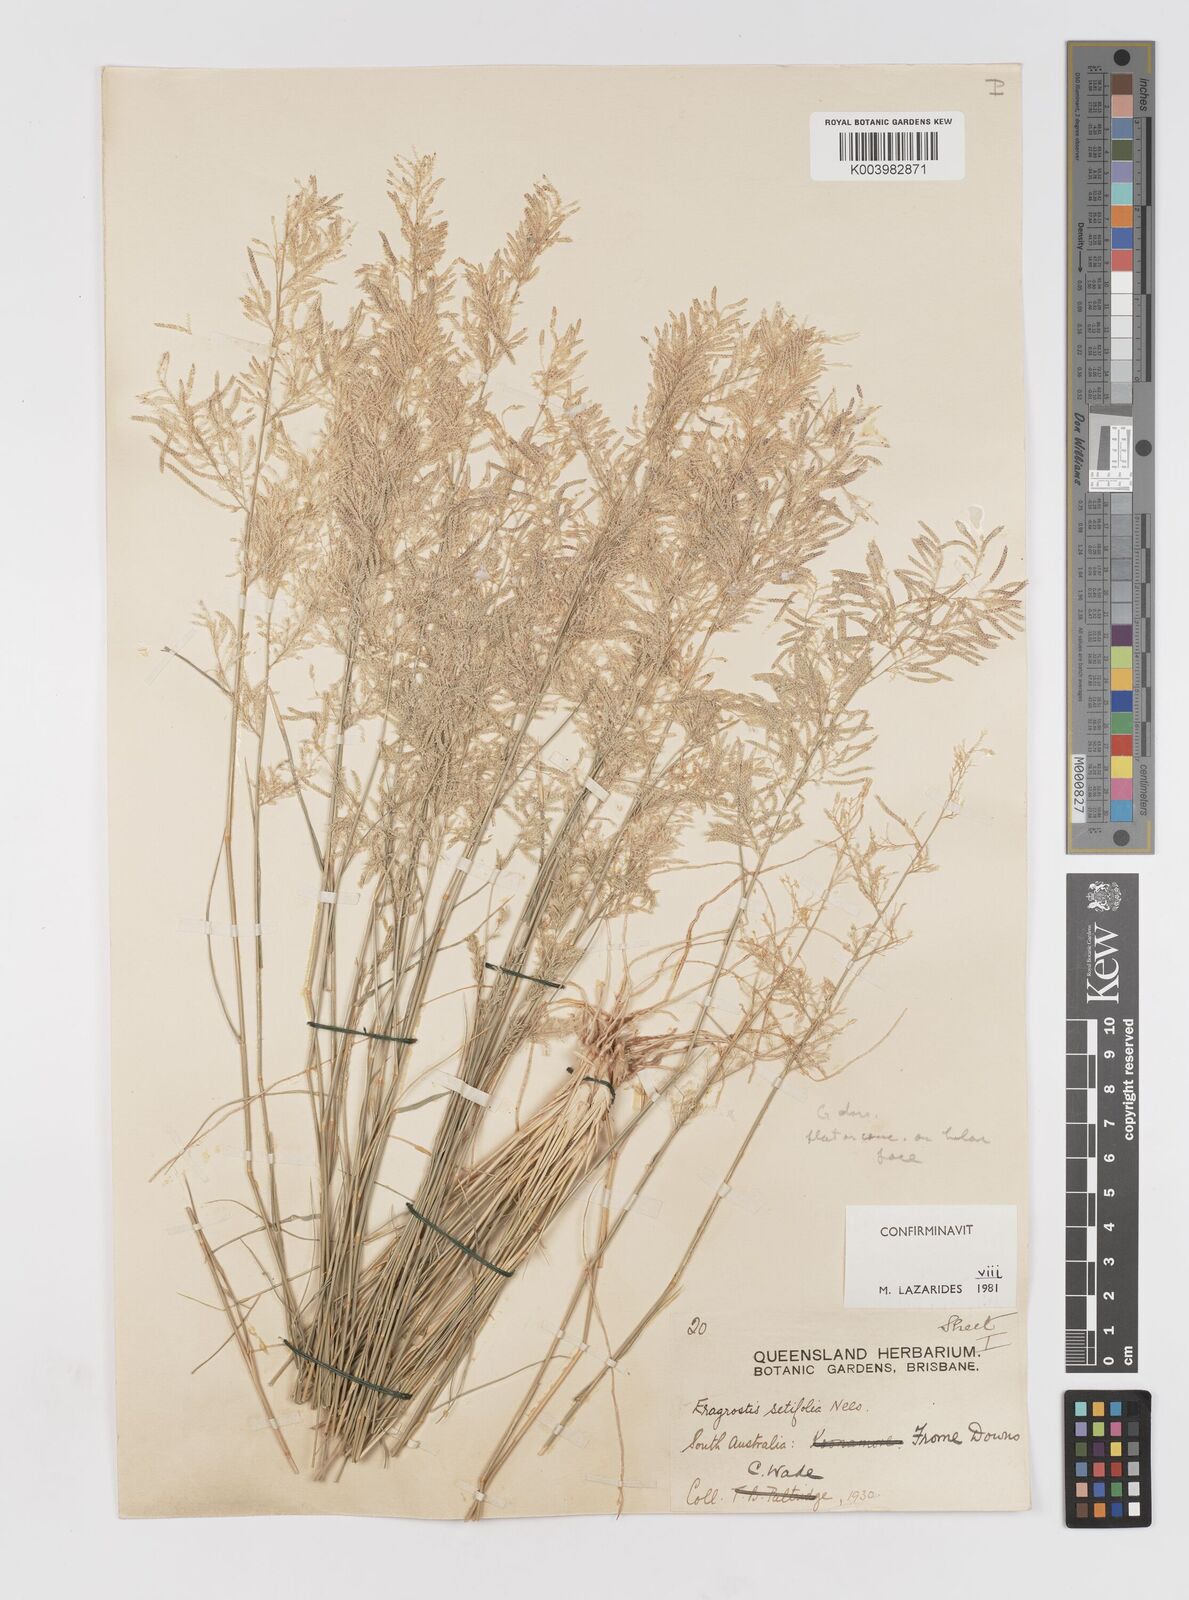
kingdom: Plantae
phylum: Tracheophyta
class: Liliopsida
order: Poales
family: Poaceae
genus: Eragrostis
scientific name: Eragrostis setifolia
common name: Bristleleaf lovegrass
